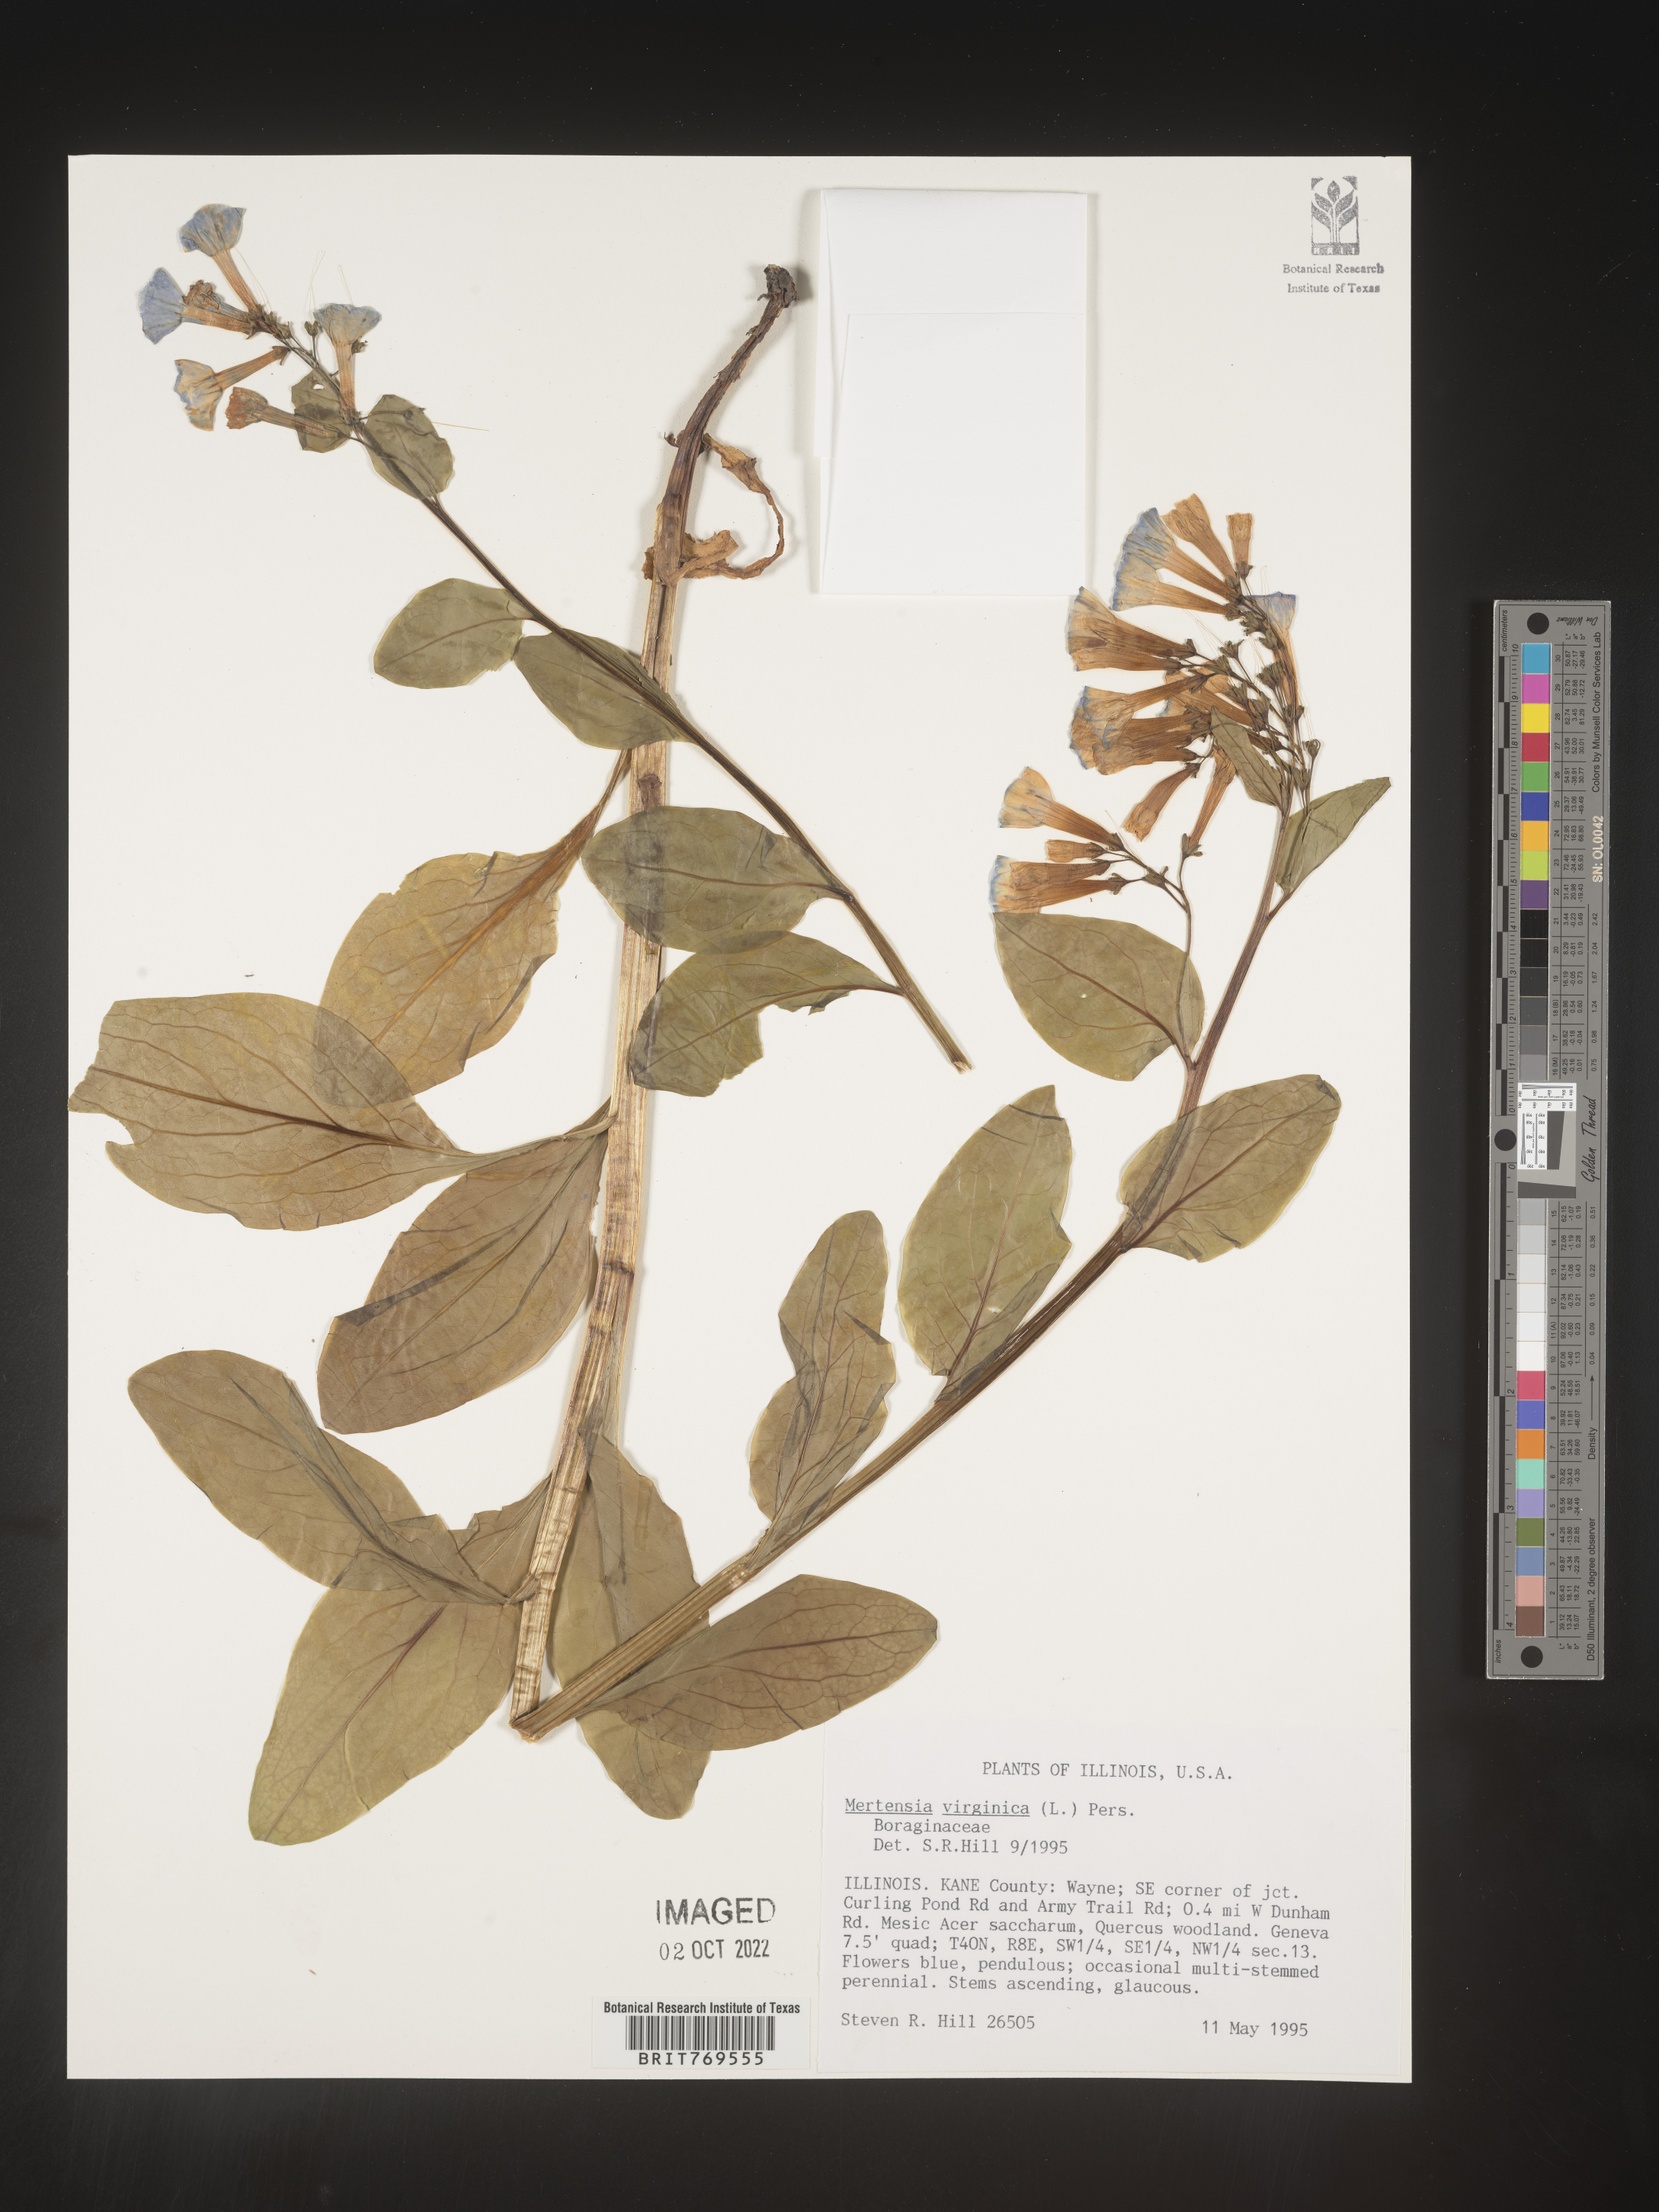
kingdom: Plantae
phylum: Tracheophyta
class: Magnoliopsida
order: Boraginales
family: Boraginaceae
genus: Mertensia
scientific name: Mertensia virginica
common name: Virginia bluebells
